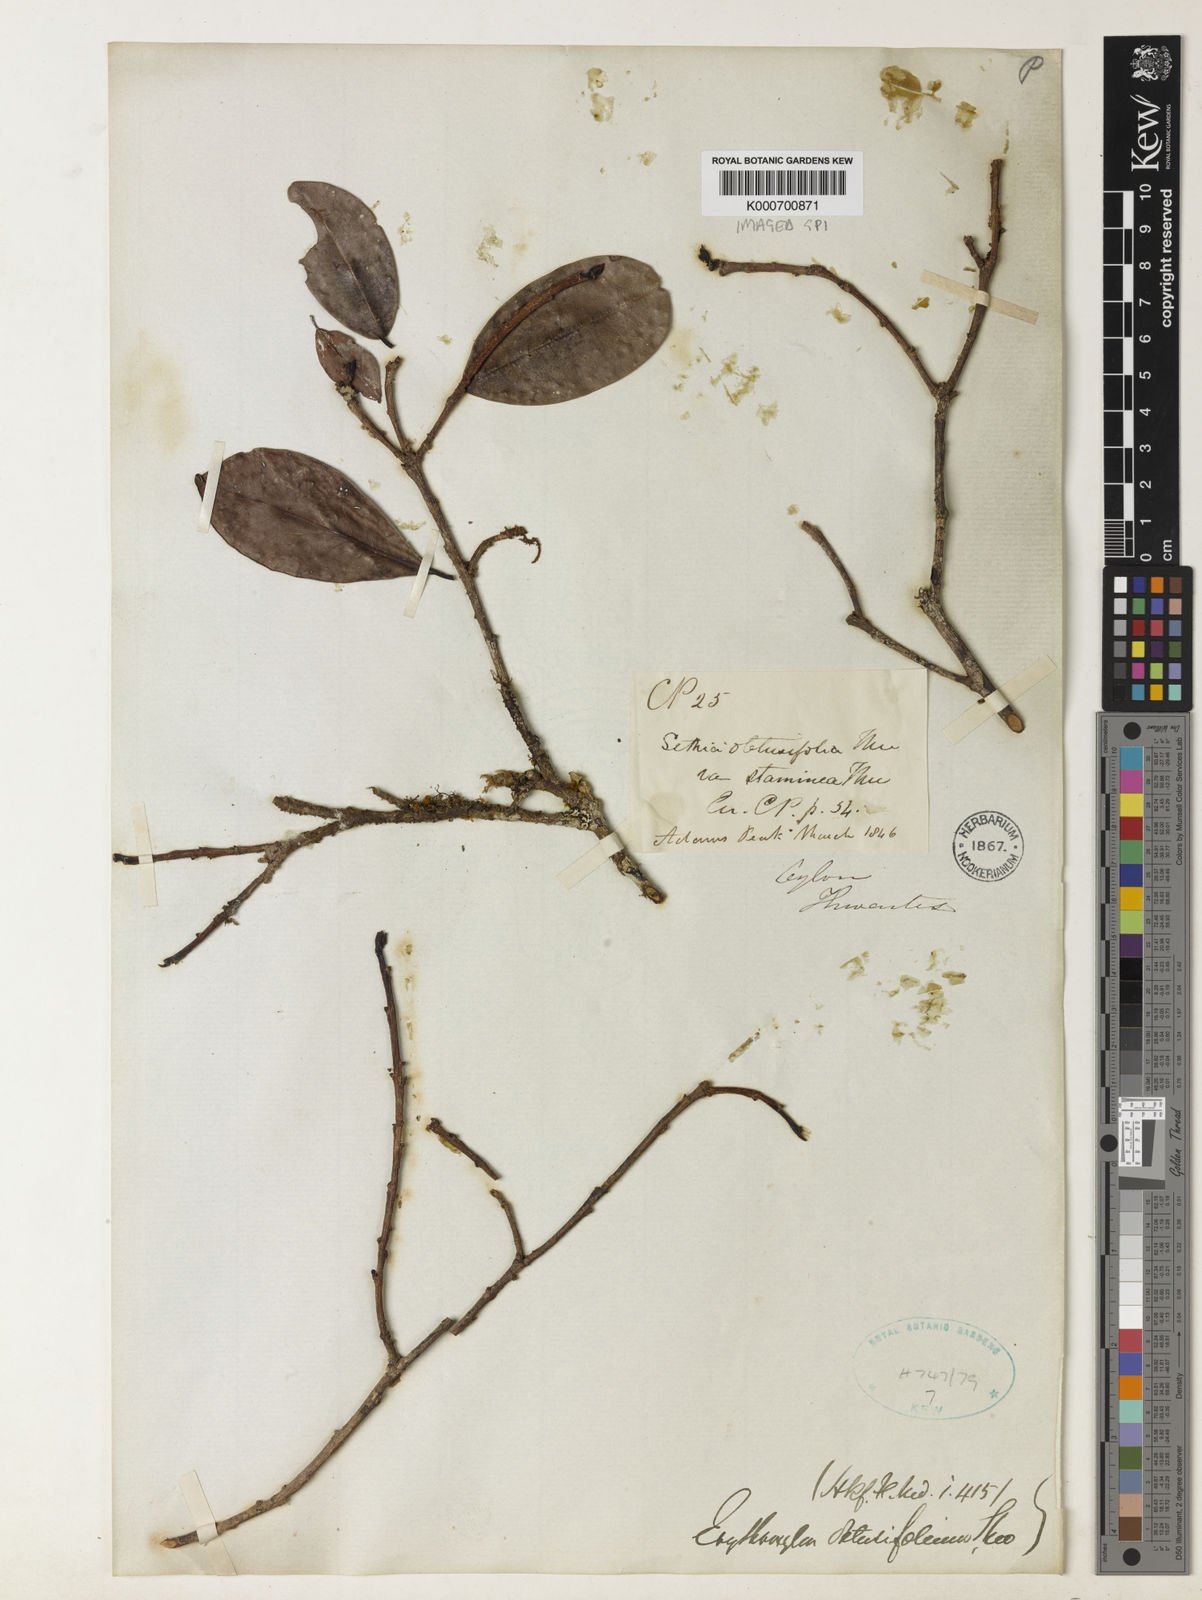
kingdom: Plantae
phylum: Tracheophyta
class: Magnoliopsida
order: Malpighiales
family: Erythroxylaceae
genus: Erythroxylum
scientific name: Erythroxylum
